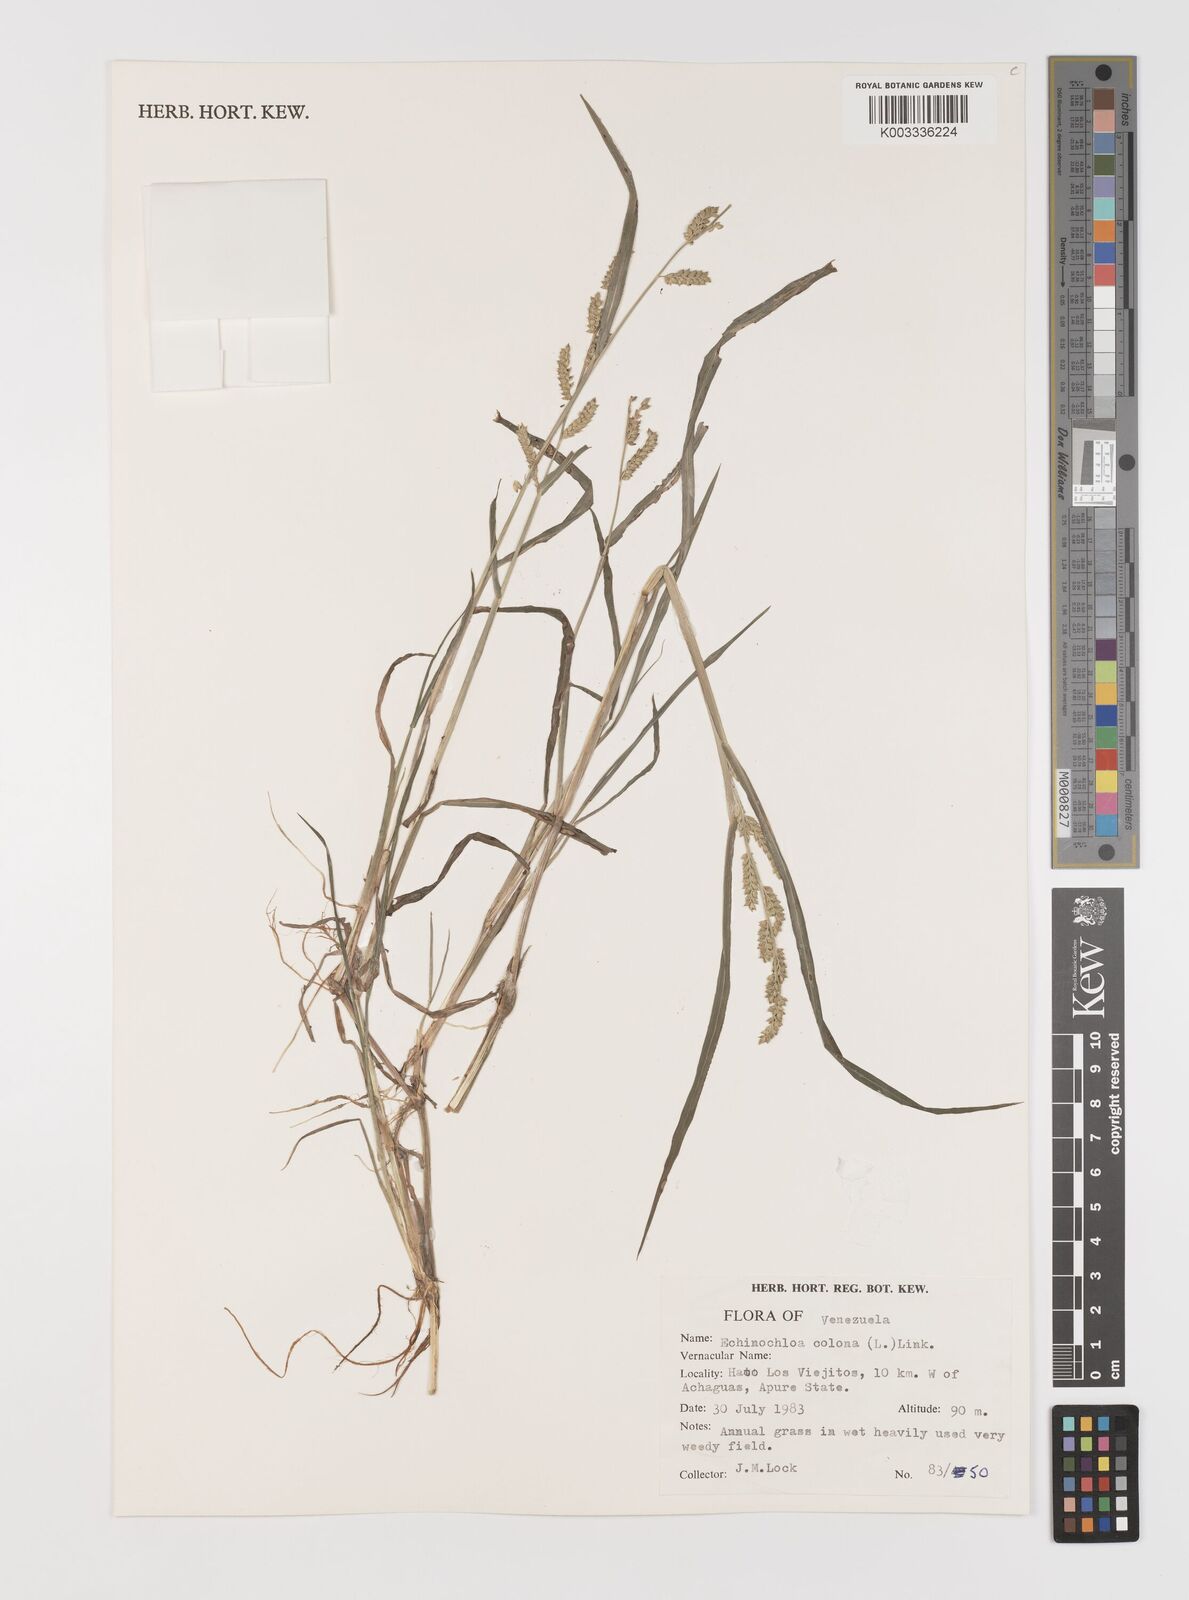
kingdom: Plantae
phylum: Tracheophyta
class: Liliopsida
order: Poales
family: Poaceae
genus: Echinochloa
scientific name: Echinochloa colonum
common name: Jungle rice
